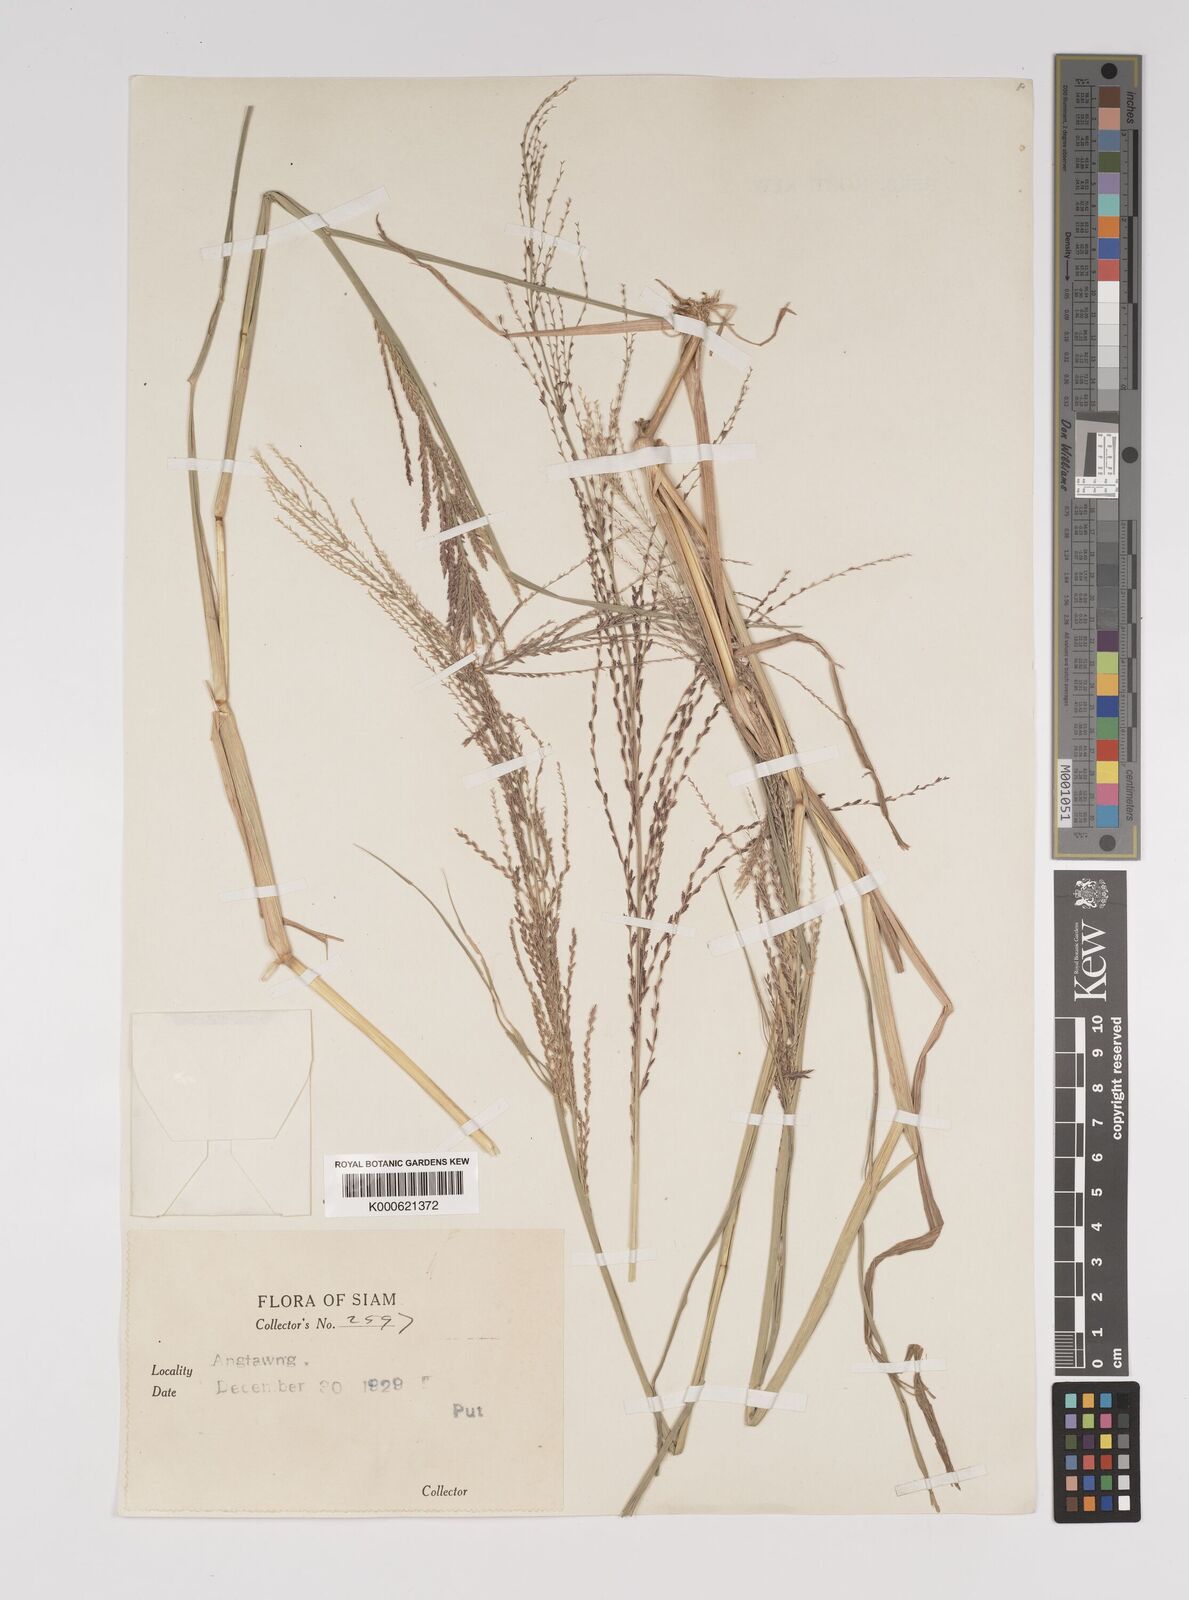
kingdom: Plantae
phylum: Tracheophyta
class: Liliopsida
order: Poales
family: Poaceae
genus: Leptochloa
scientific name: Leptochloa chinensis
